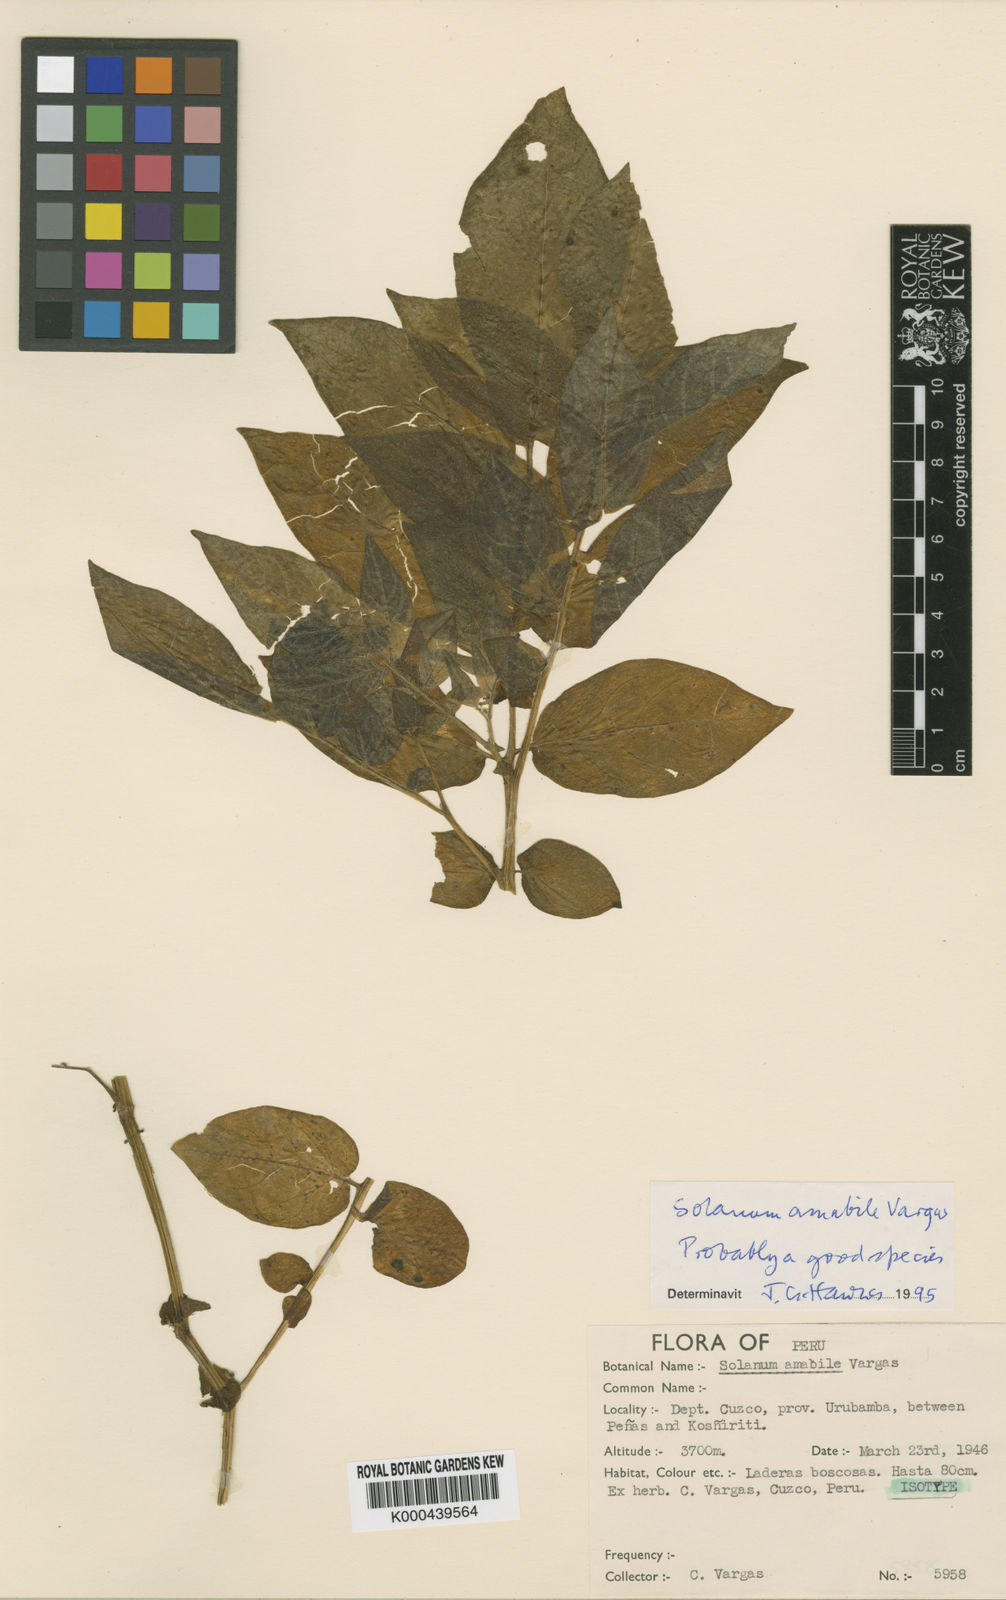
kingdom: Plantae
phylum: Tracheophyta
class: Magnoliopsida
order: Solanales
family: Solanaceae
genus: Solanum
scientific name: Solanum candolleanum
